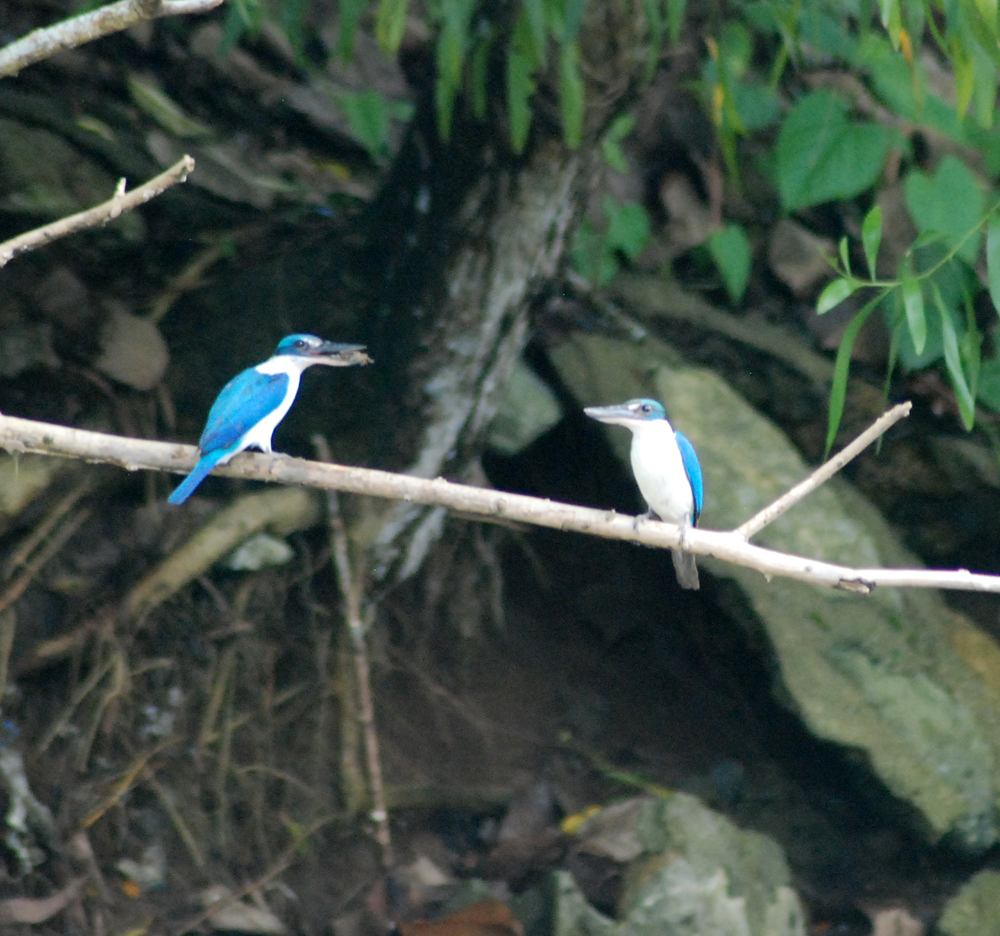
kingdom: Animalia
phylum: Chordata
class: Aves
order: Coraciiformes
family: Alcedinidae
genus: Todiramphus
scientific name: Todiramphus chloris
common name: Collared kingfisher
